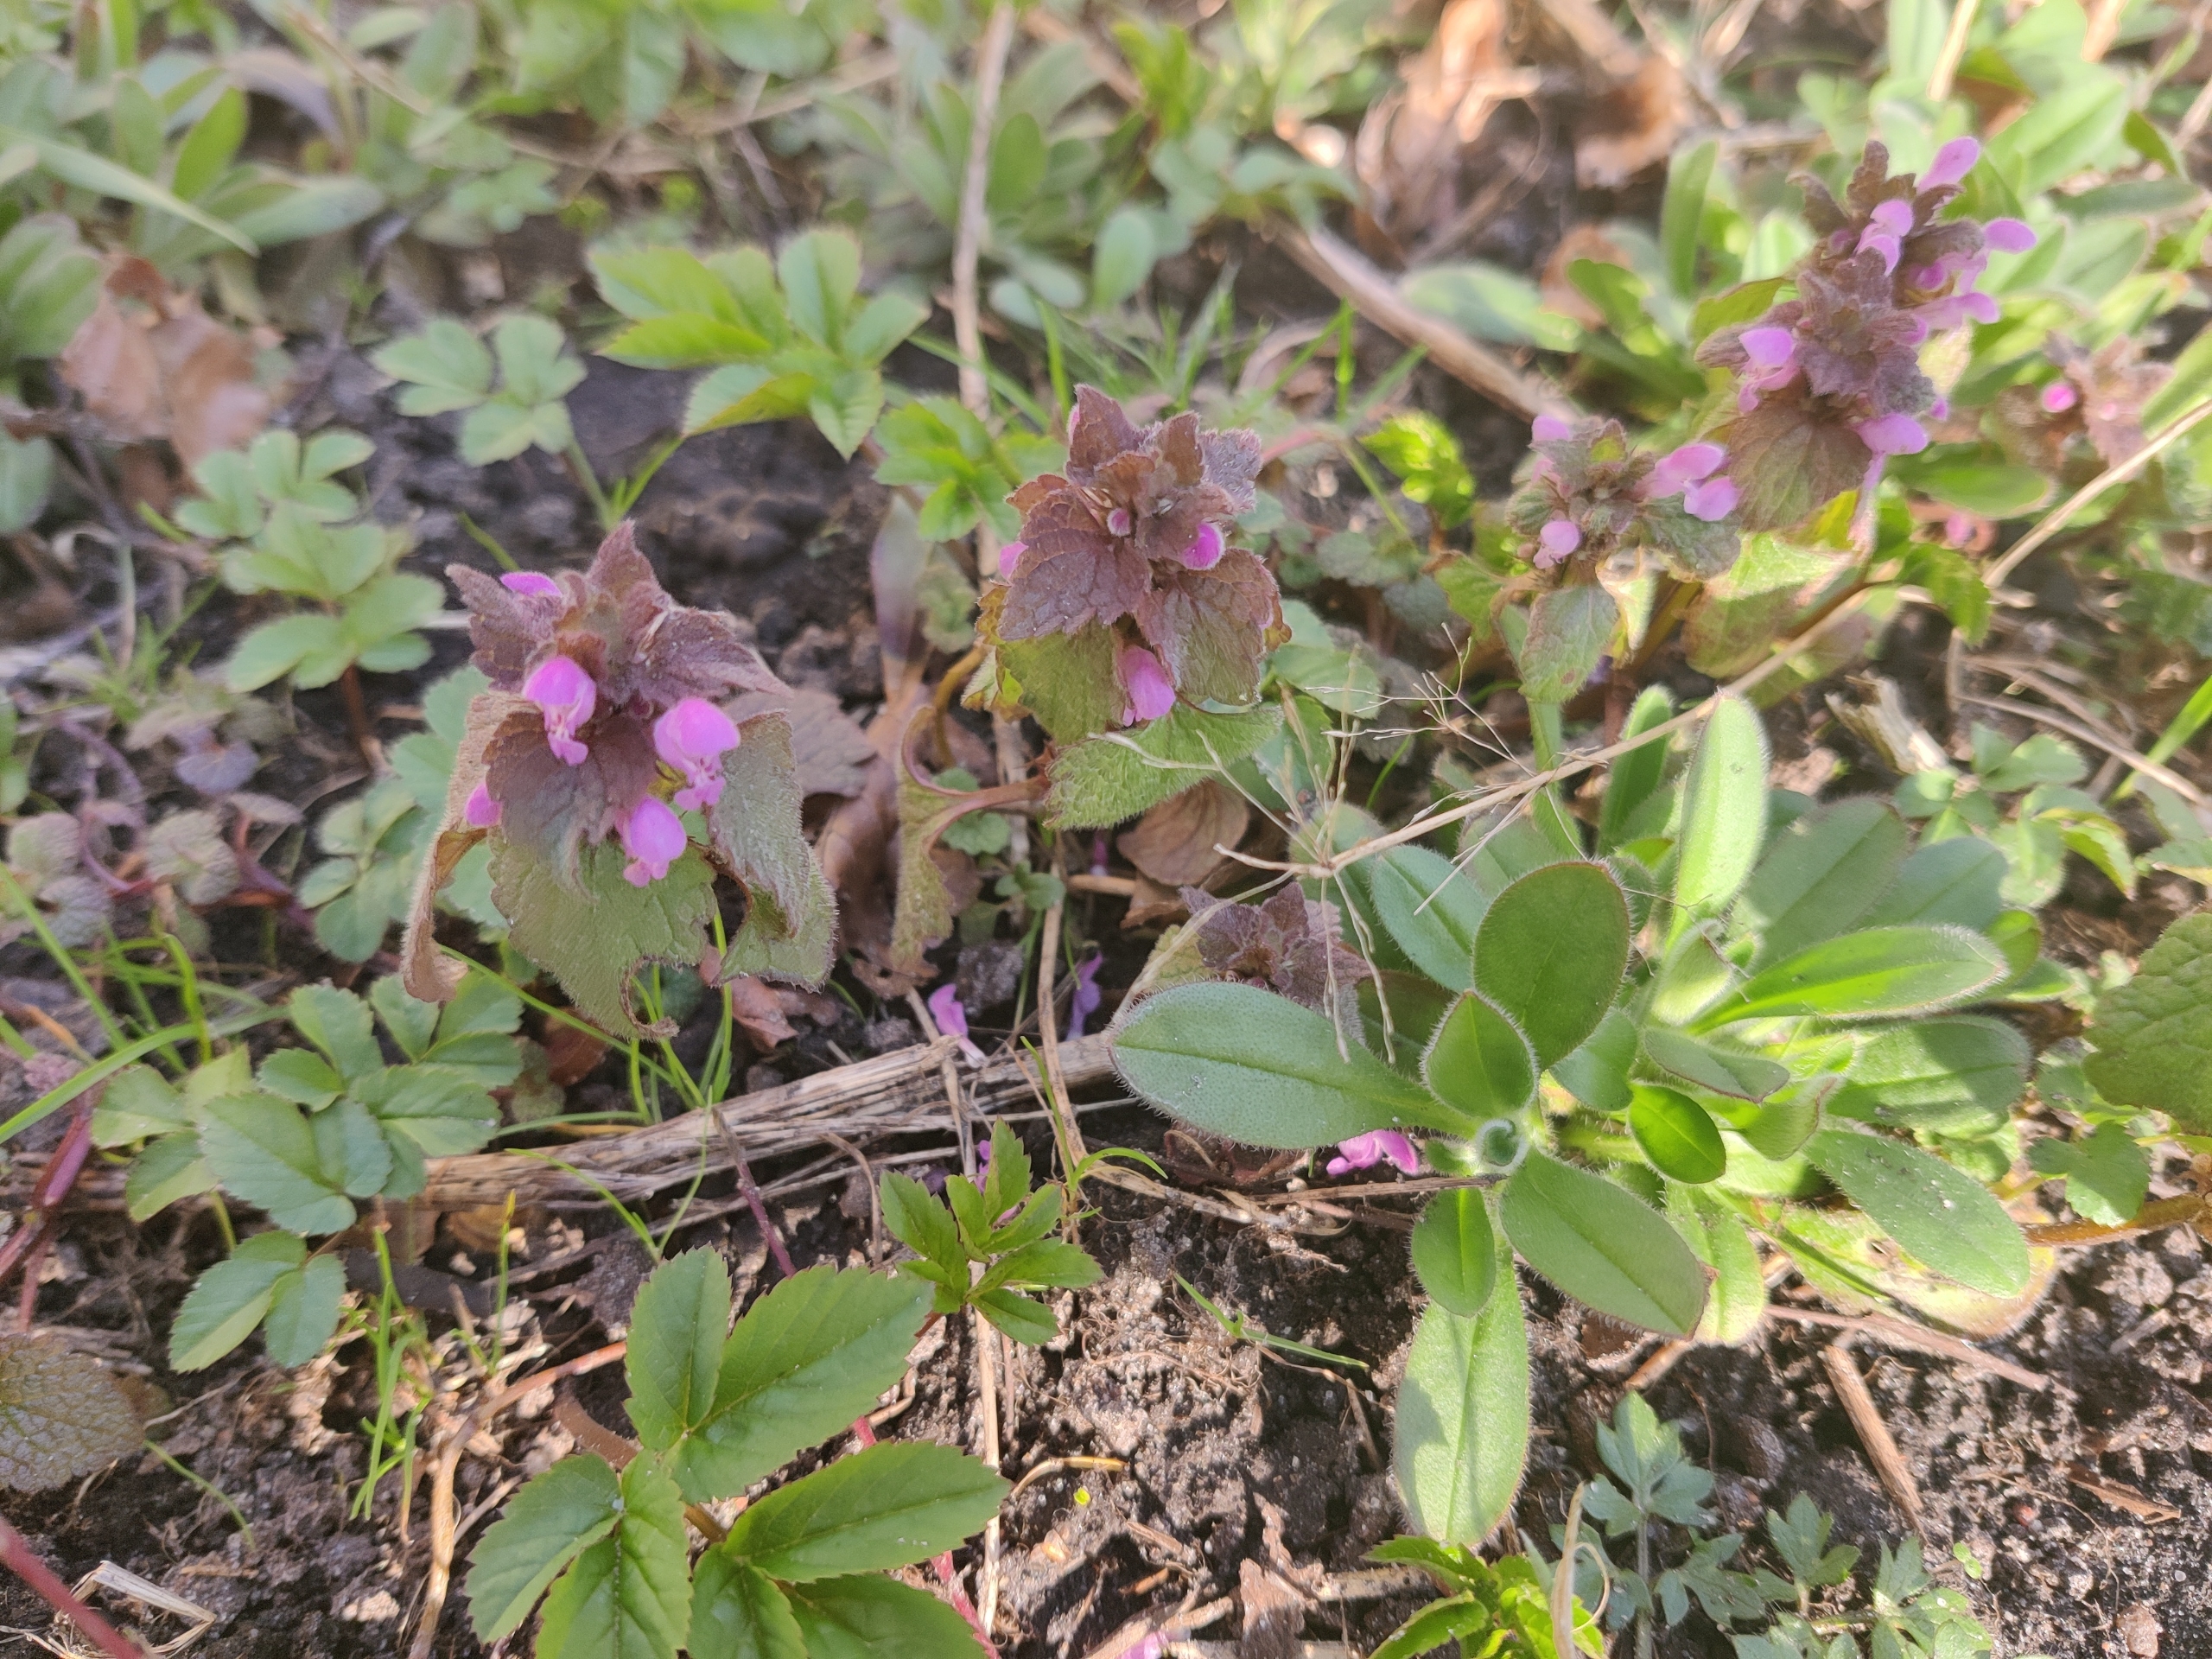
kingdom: Plantae
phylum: Tracheophyta
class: Magnoliopsida
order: Lamiales
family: Lamiaceae
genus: Lamium
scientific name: Lamium purpureum
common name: Rød tvetand
